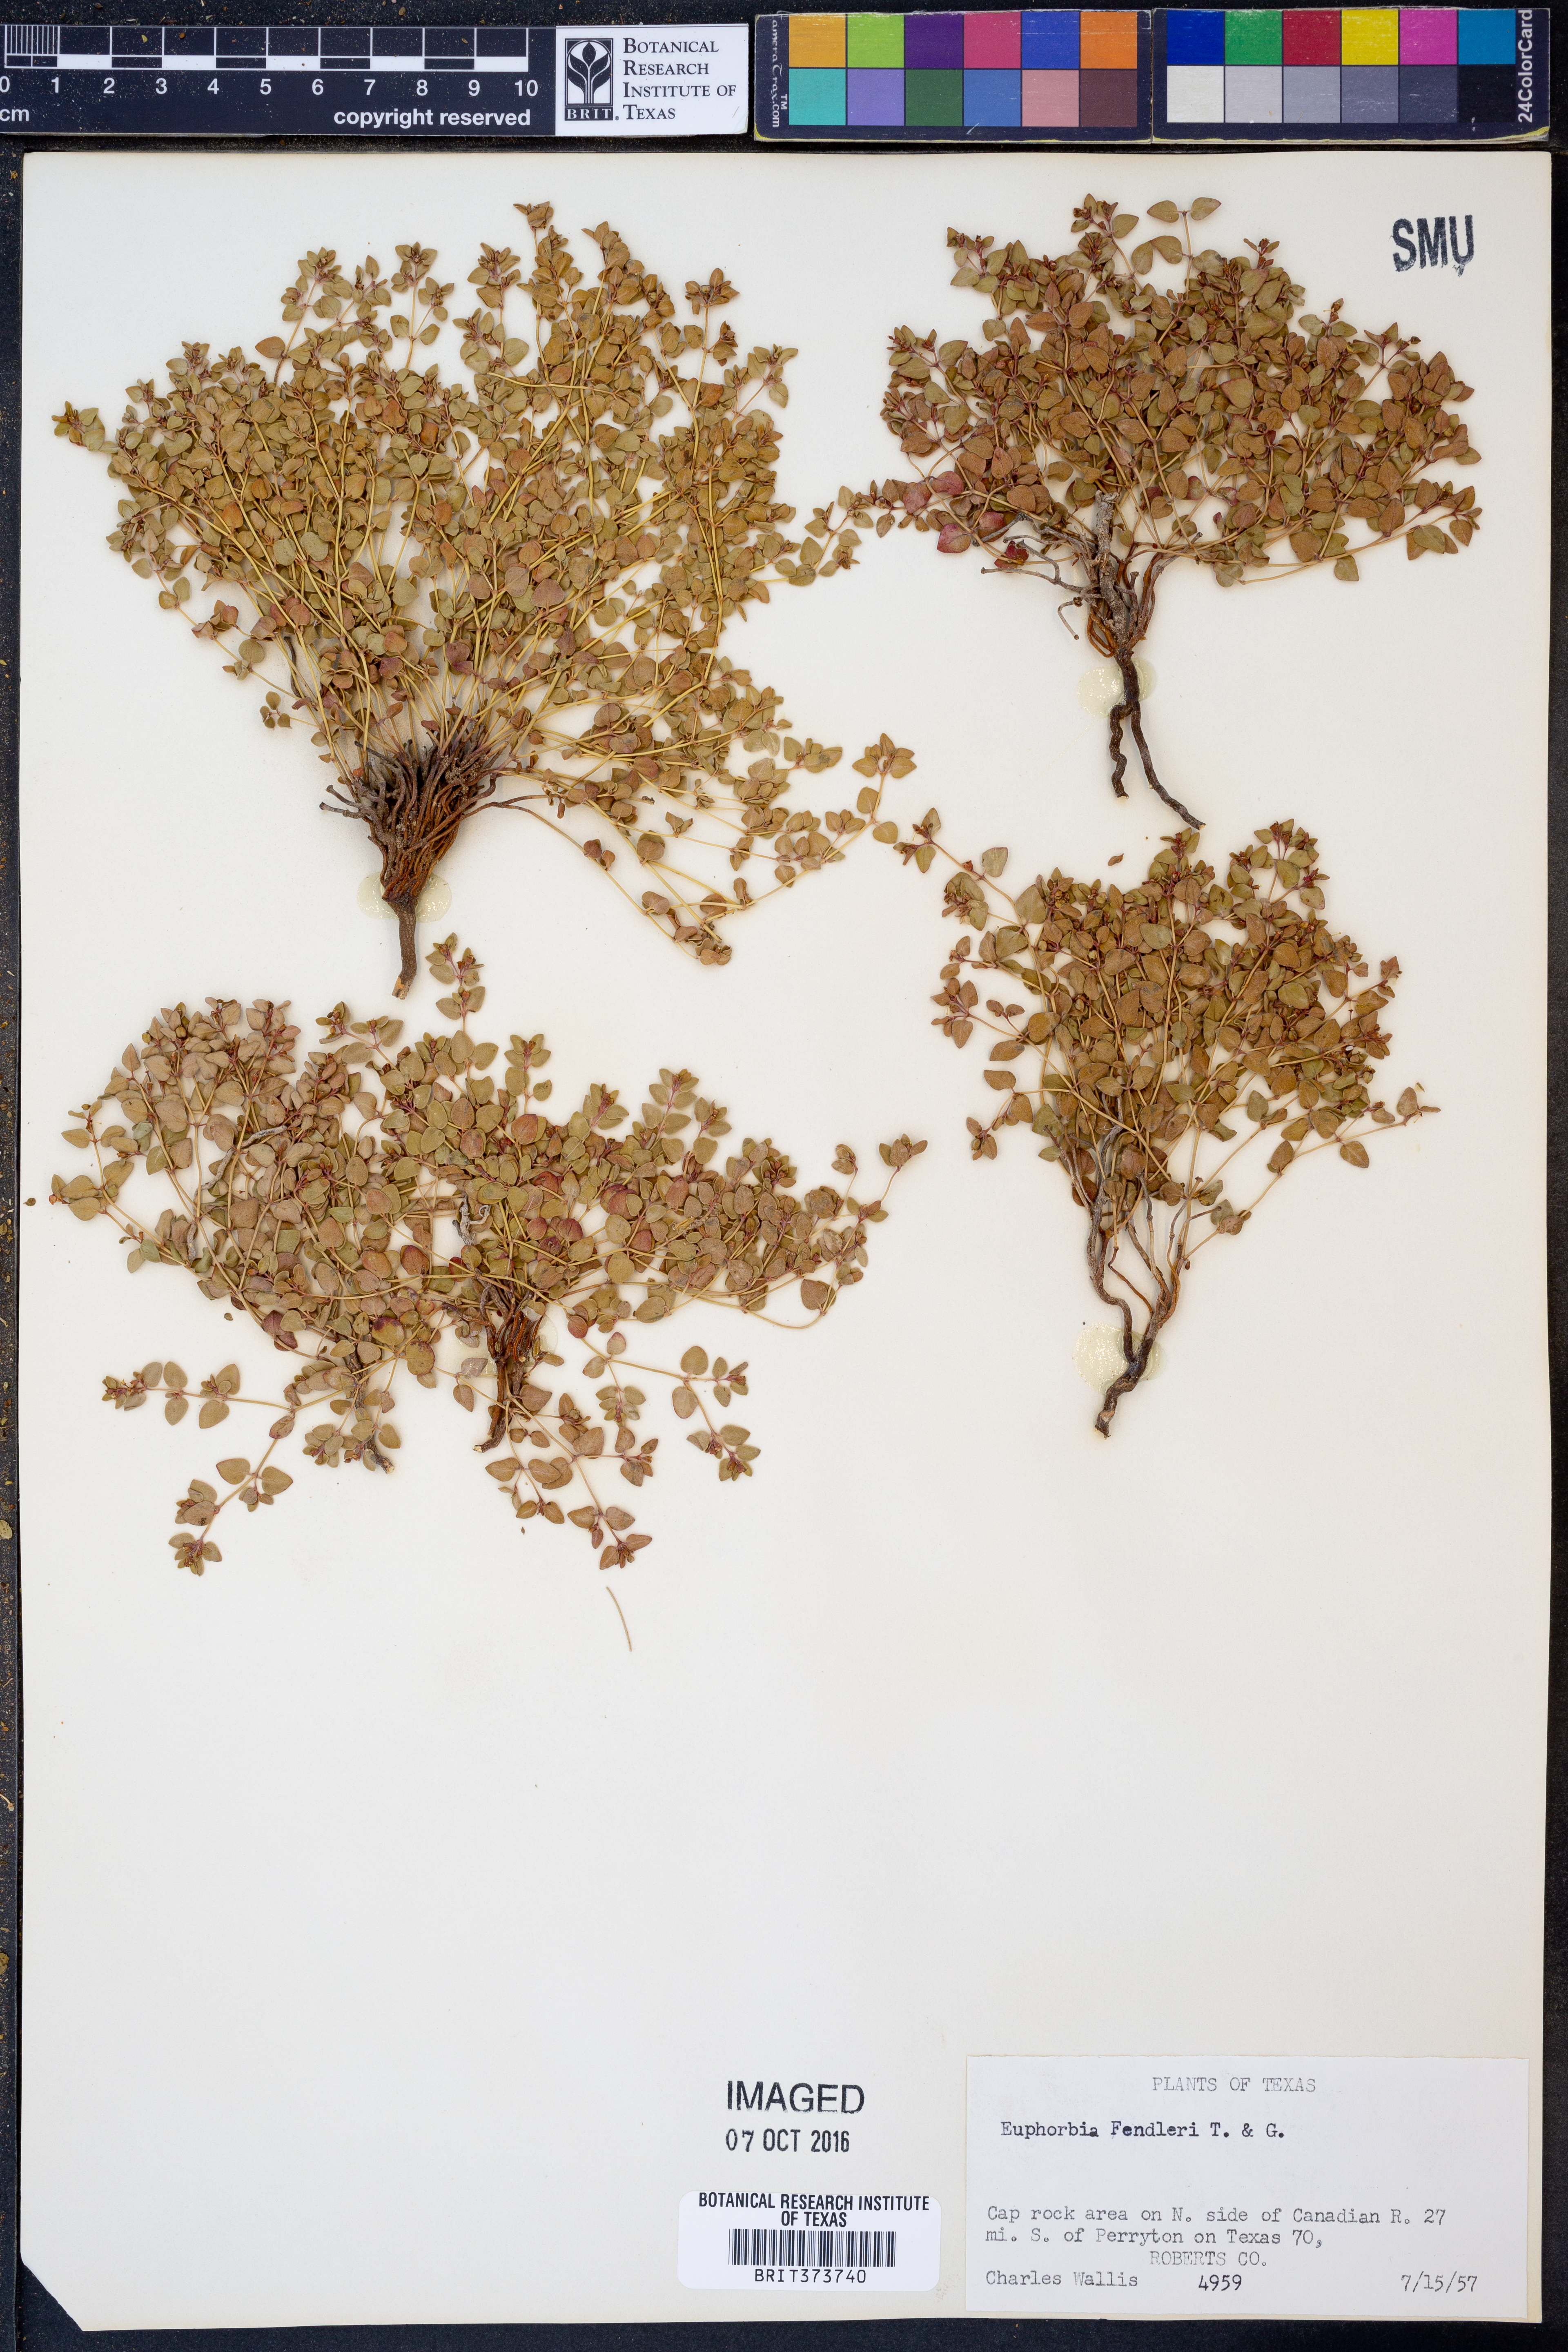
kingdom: Plantae
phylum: Tracheophyta
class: Magnoliopsida
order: Malpighiales
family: Euphorbiaceae
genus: Euphorbia
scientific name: Euphorbia fendleri
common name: Fendler's euphorbia
